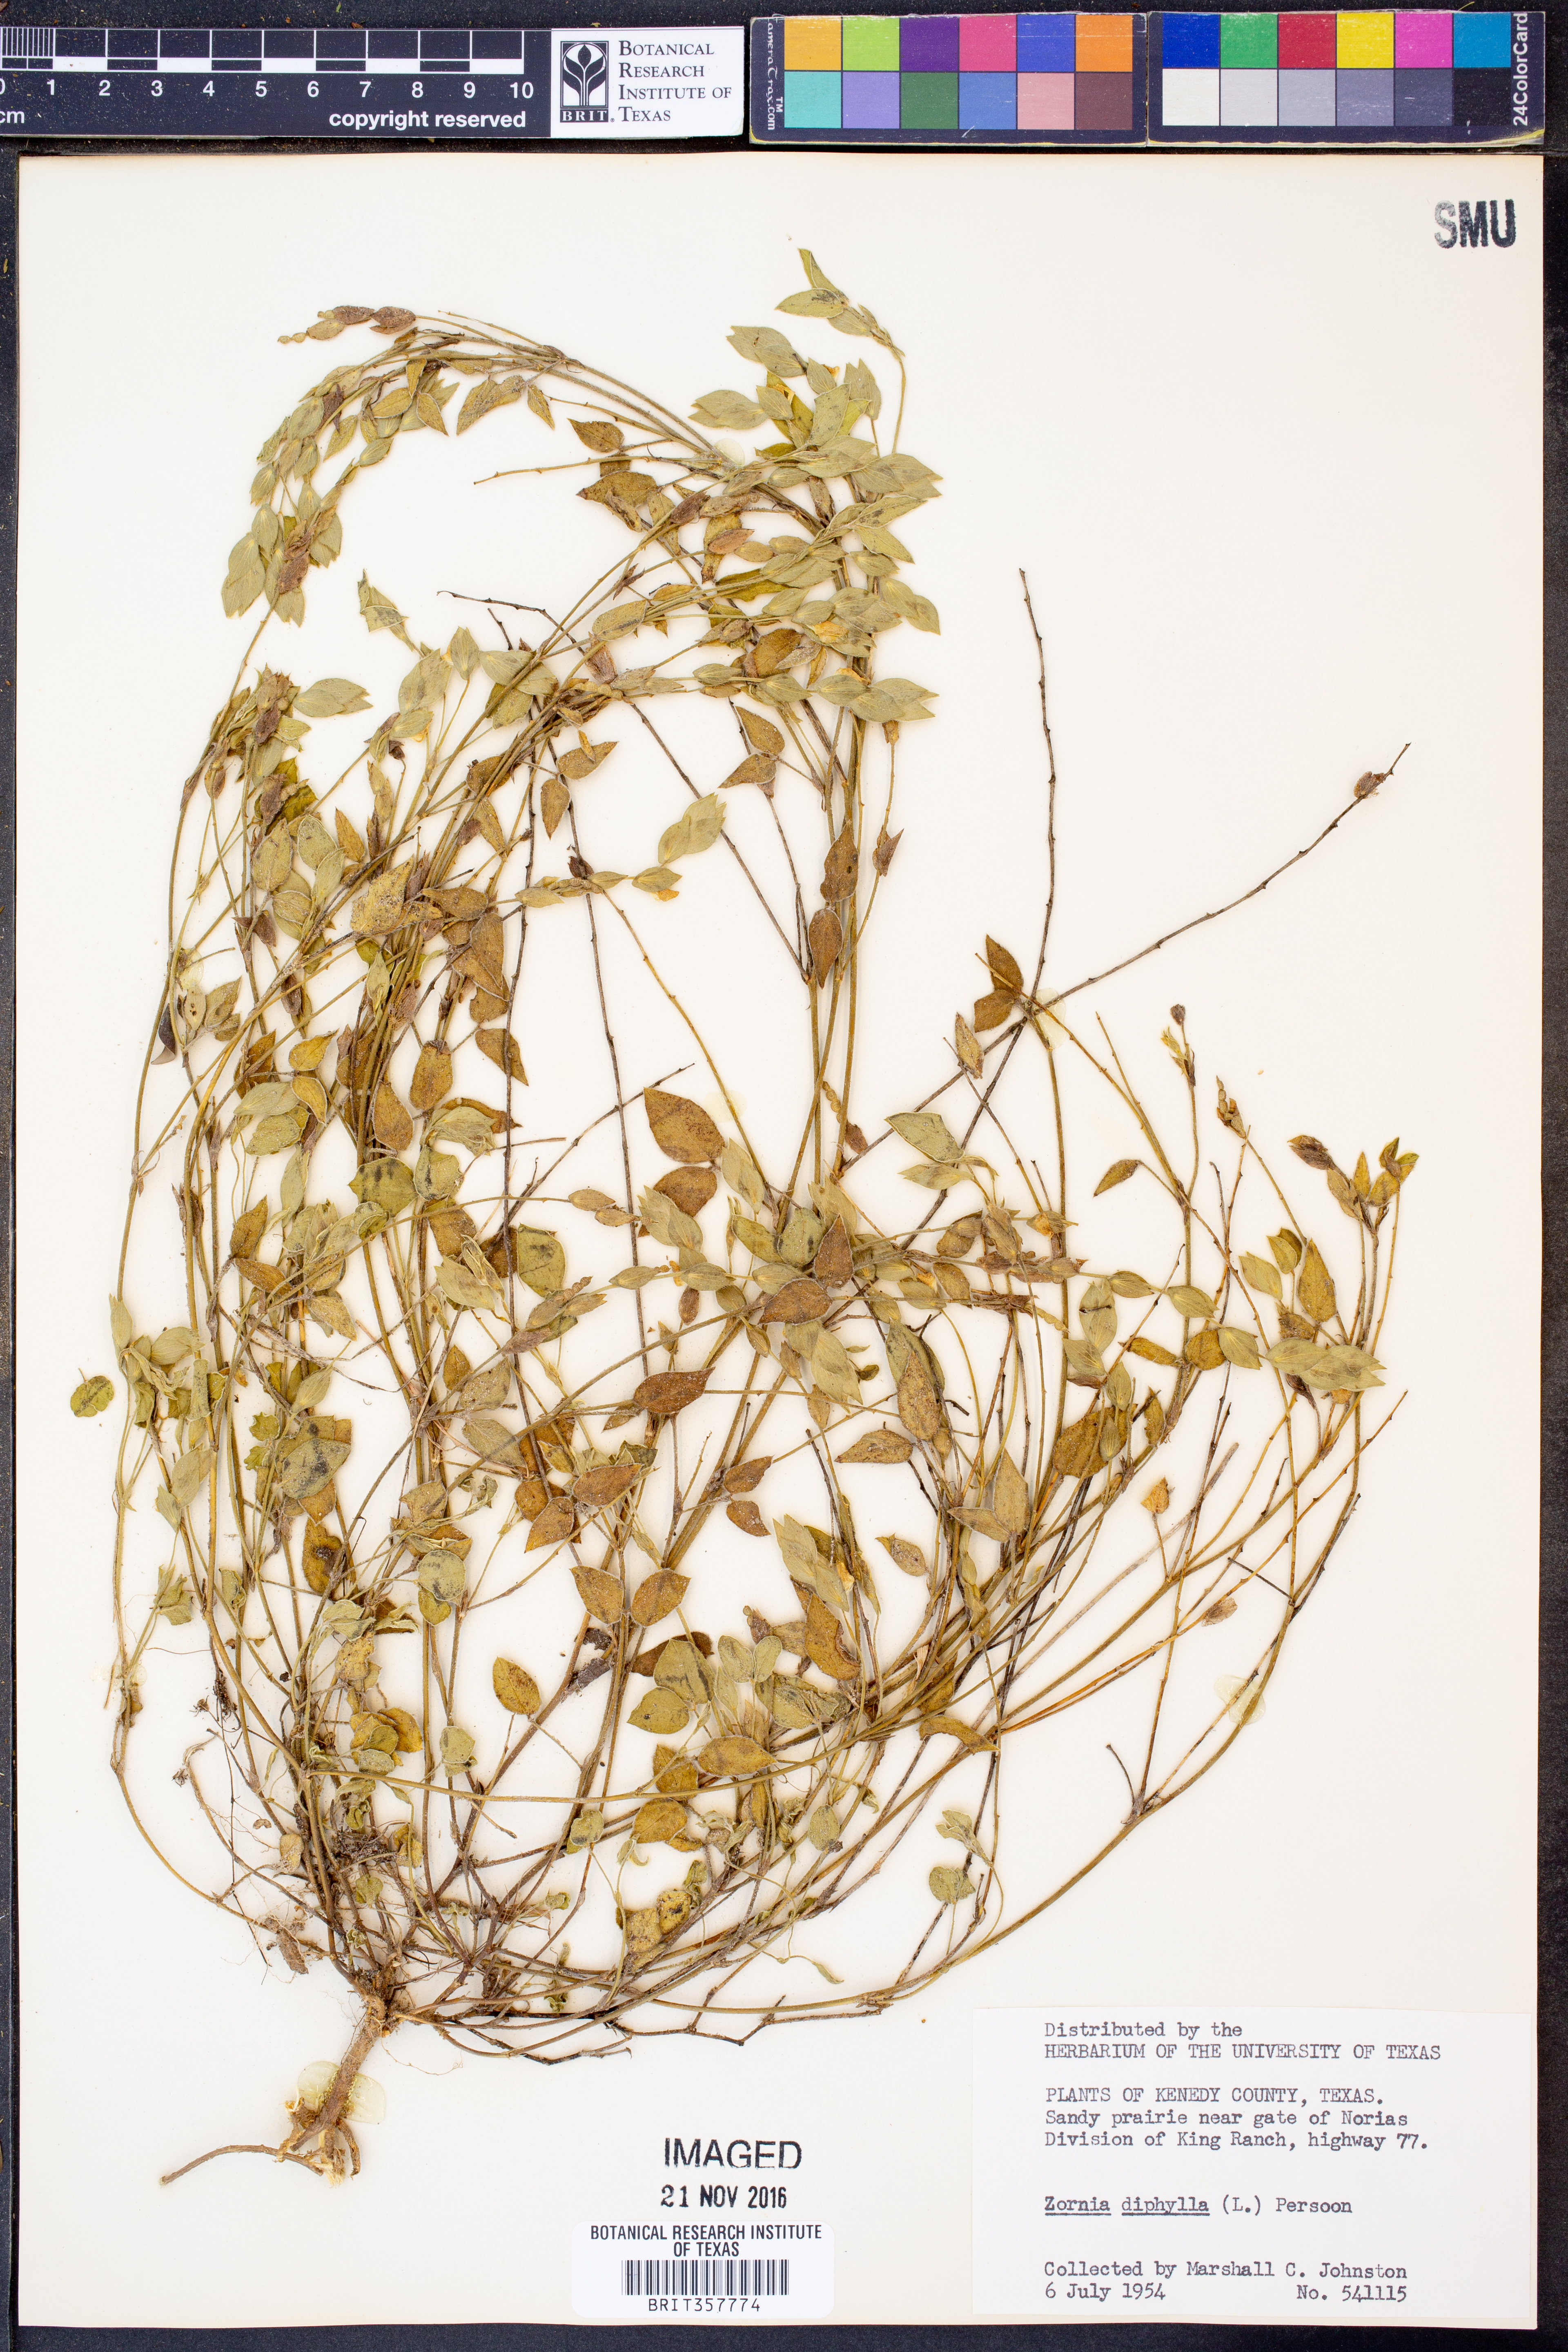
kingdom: Plantae
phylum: Tracheophyta
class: Magnoliopsida
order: Fabales
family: Fabaceae
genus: Zornia
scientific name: Zornia diphylla
